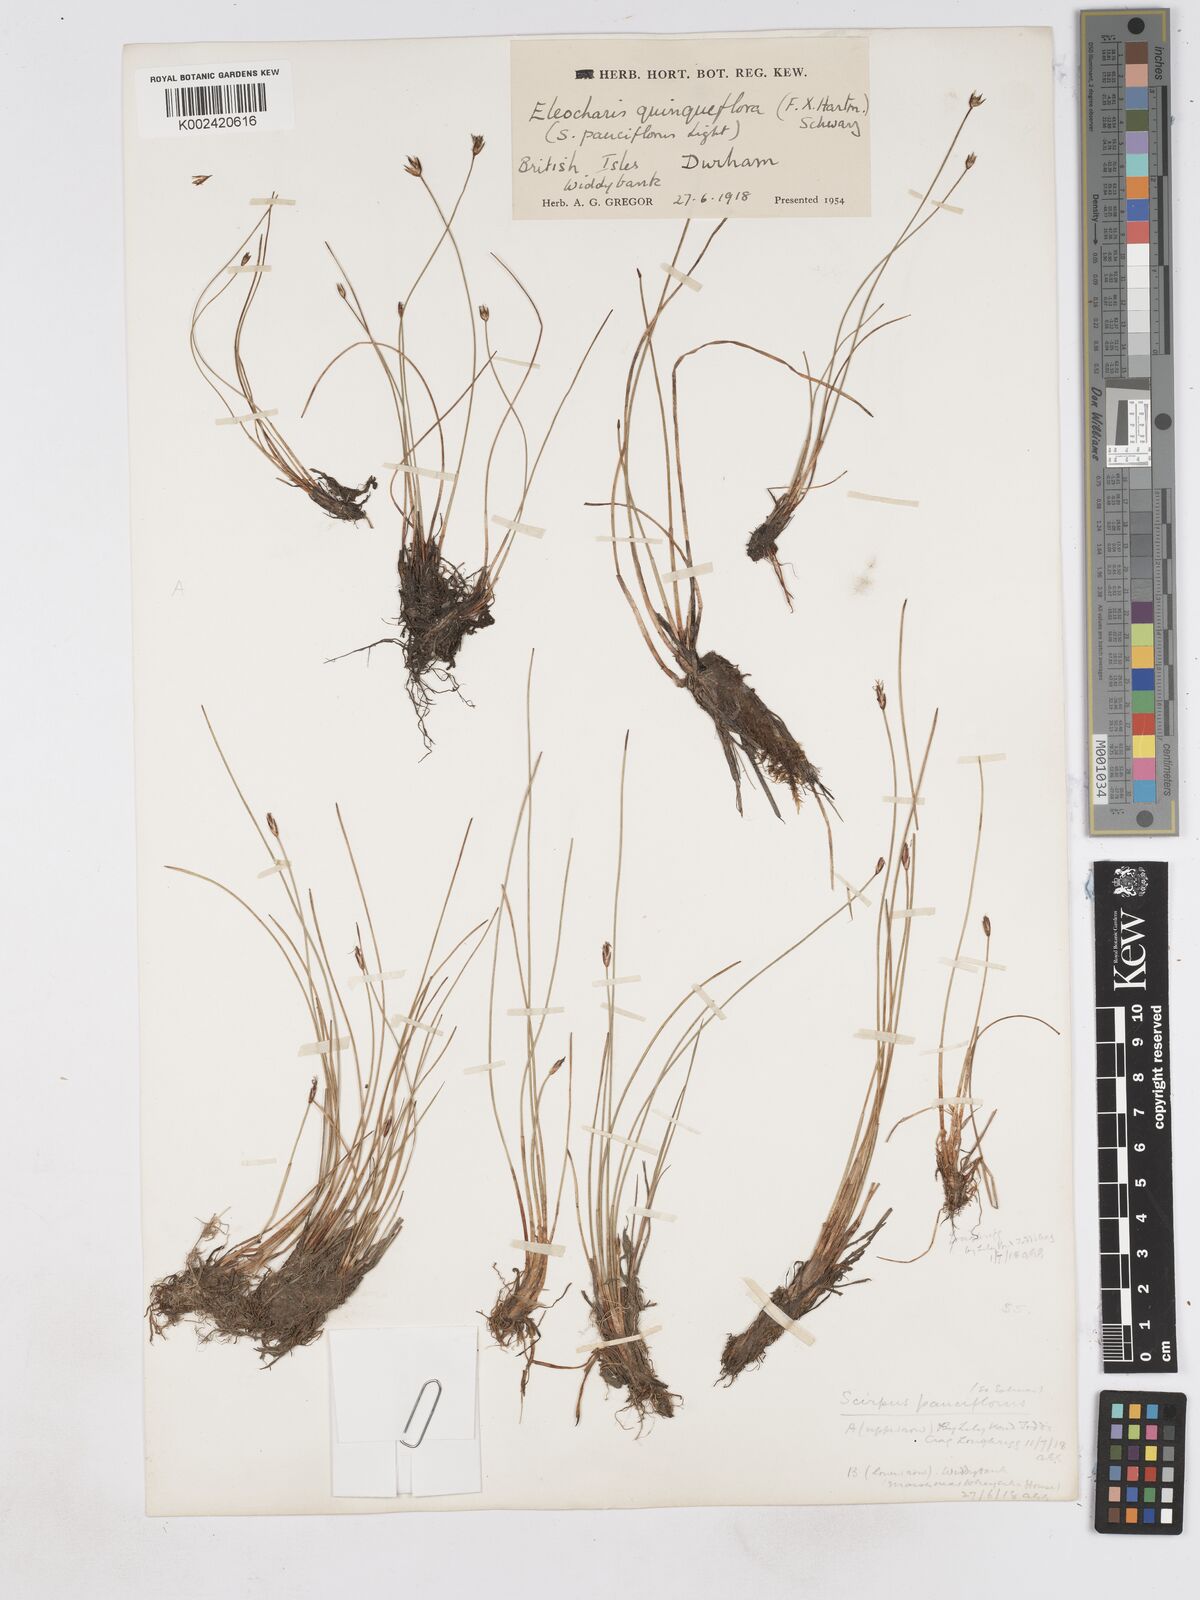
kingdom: Plantae
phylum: Tracheophyta
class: Liliopsida
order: Poales
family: Cyperaceae
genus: Eleocharis
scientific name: Eleocharis quinqueflora
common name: Few-flowered spike-rush
